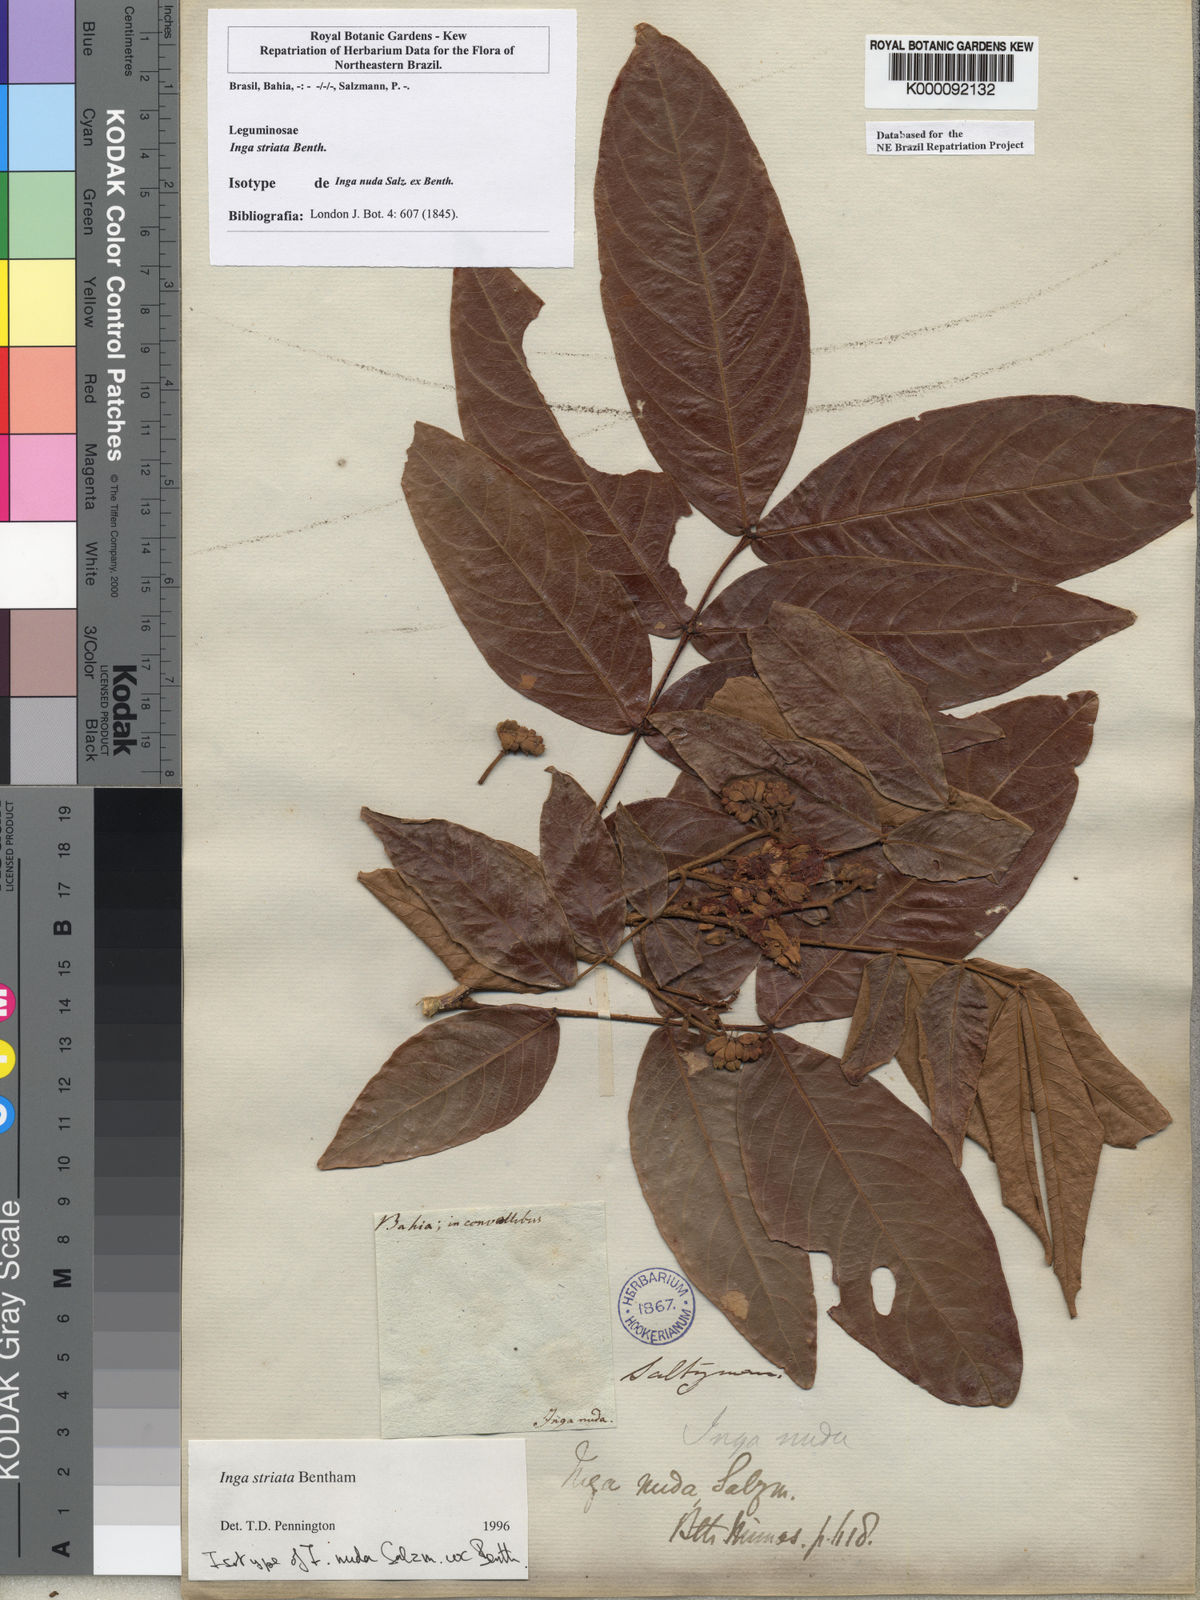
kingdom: Plantae
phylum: Tracheophyta
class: Magnoliopsida
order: Fabales
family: Fabaceae
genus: Inga
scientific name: Inga striata
